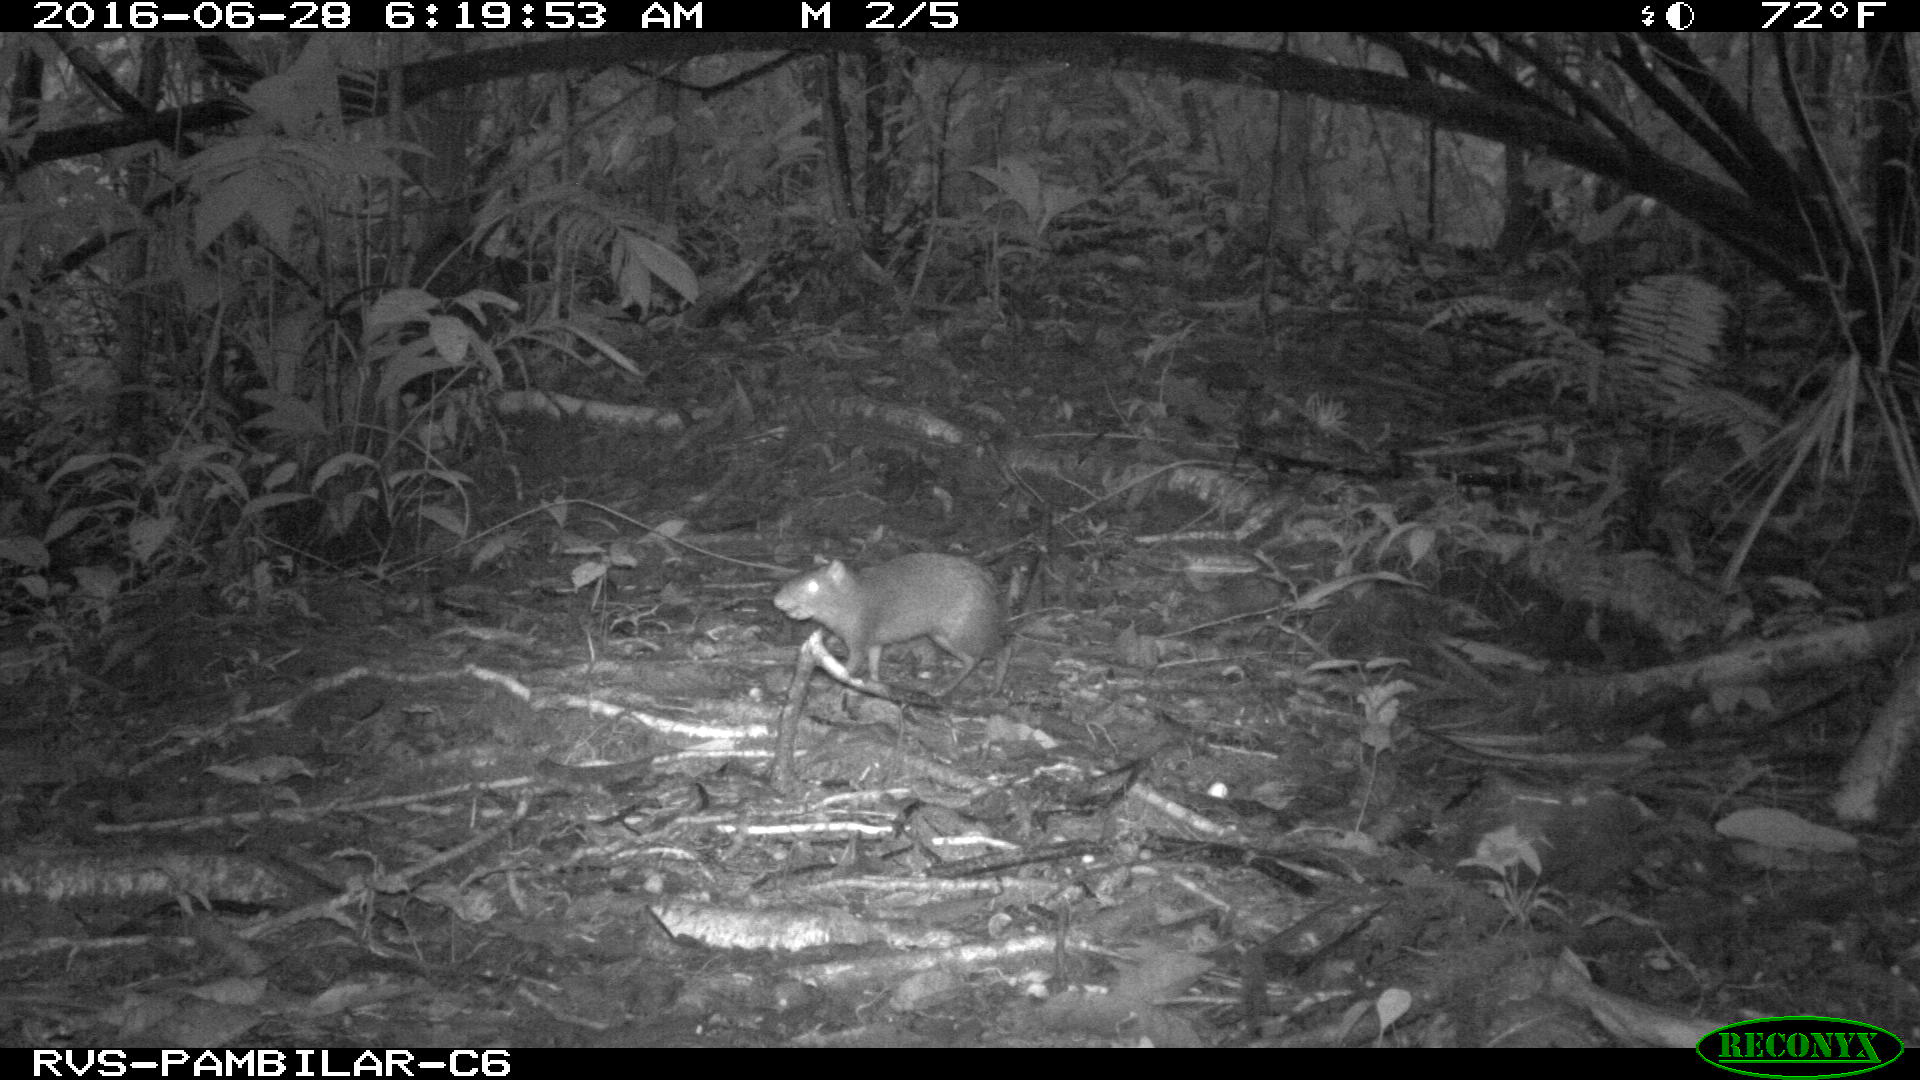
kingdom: Animalia
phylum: Chordata
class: Mammalia
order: Rodentia
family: Dasyproctidae
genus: Dasyprocta
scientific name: Dasyprocta punctata
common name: Central american agouti
